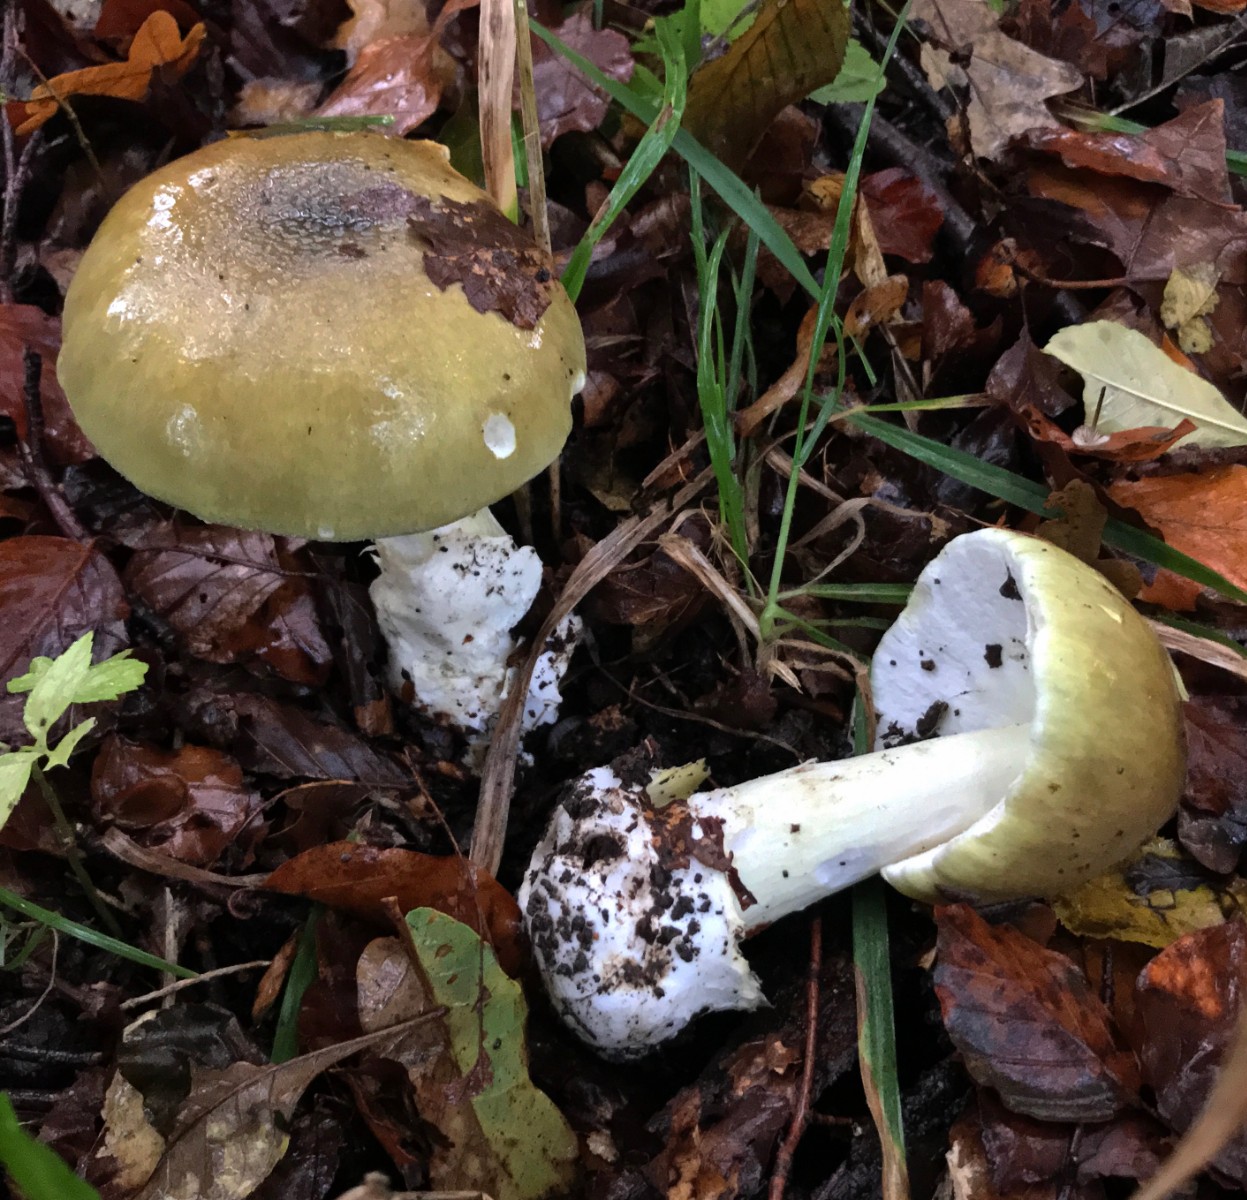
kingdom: Fungi
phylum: Basidiomycota
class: Agaricomycetes
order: Agaricales
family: Amanitaceae
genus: Amanita
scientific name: Amanita phalloides
